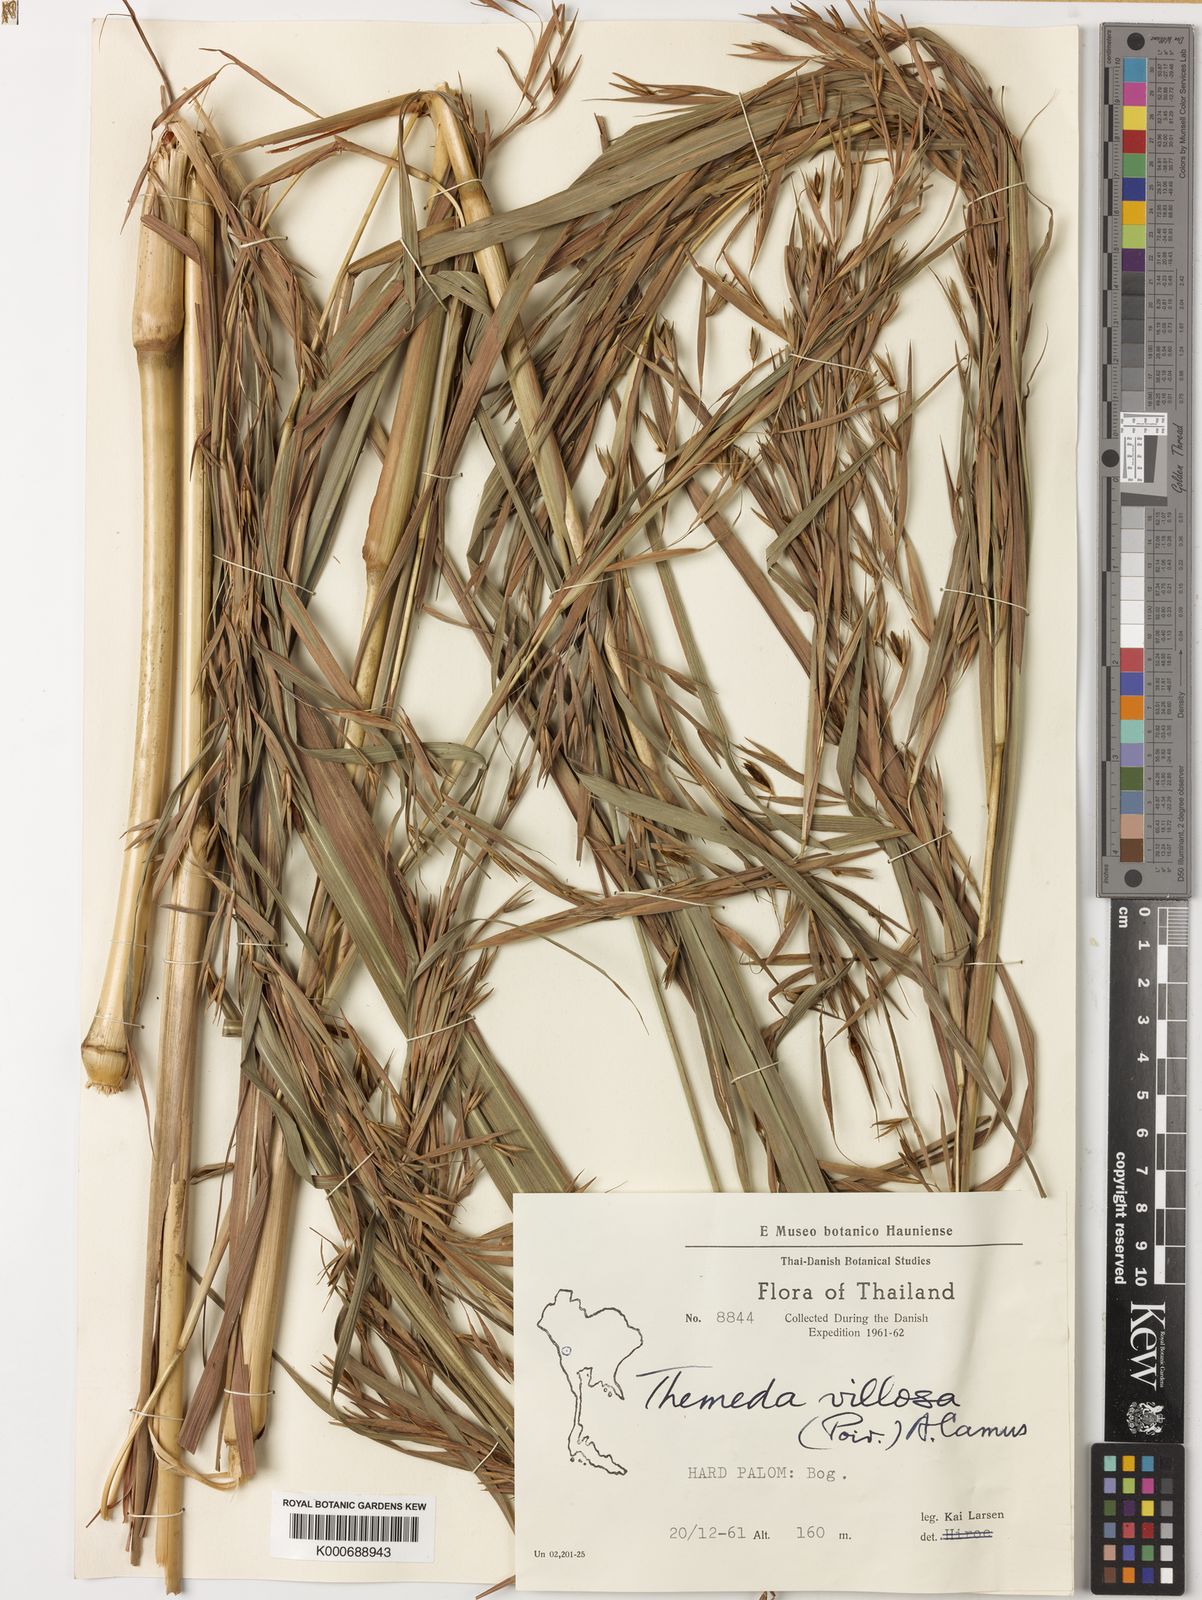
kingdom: Plantae
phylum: Tracheophyta
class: Liliopsida
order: Poales
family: Poaceae
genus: Themeda
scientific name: Themeda villosa
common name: Silky kangaroo grass
